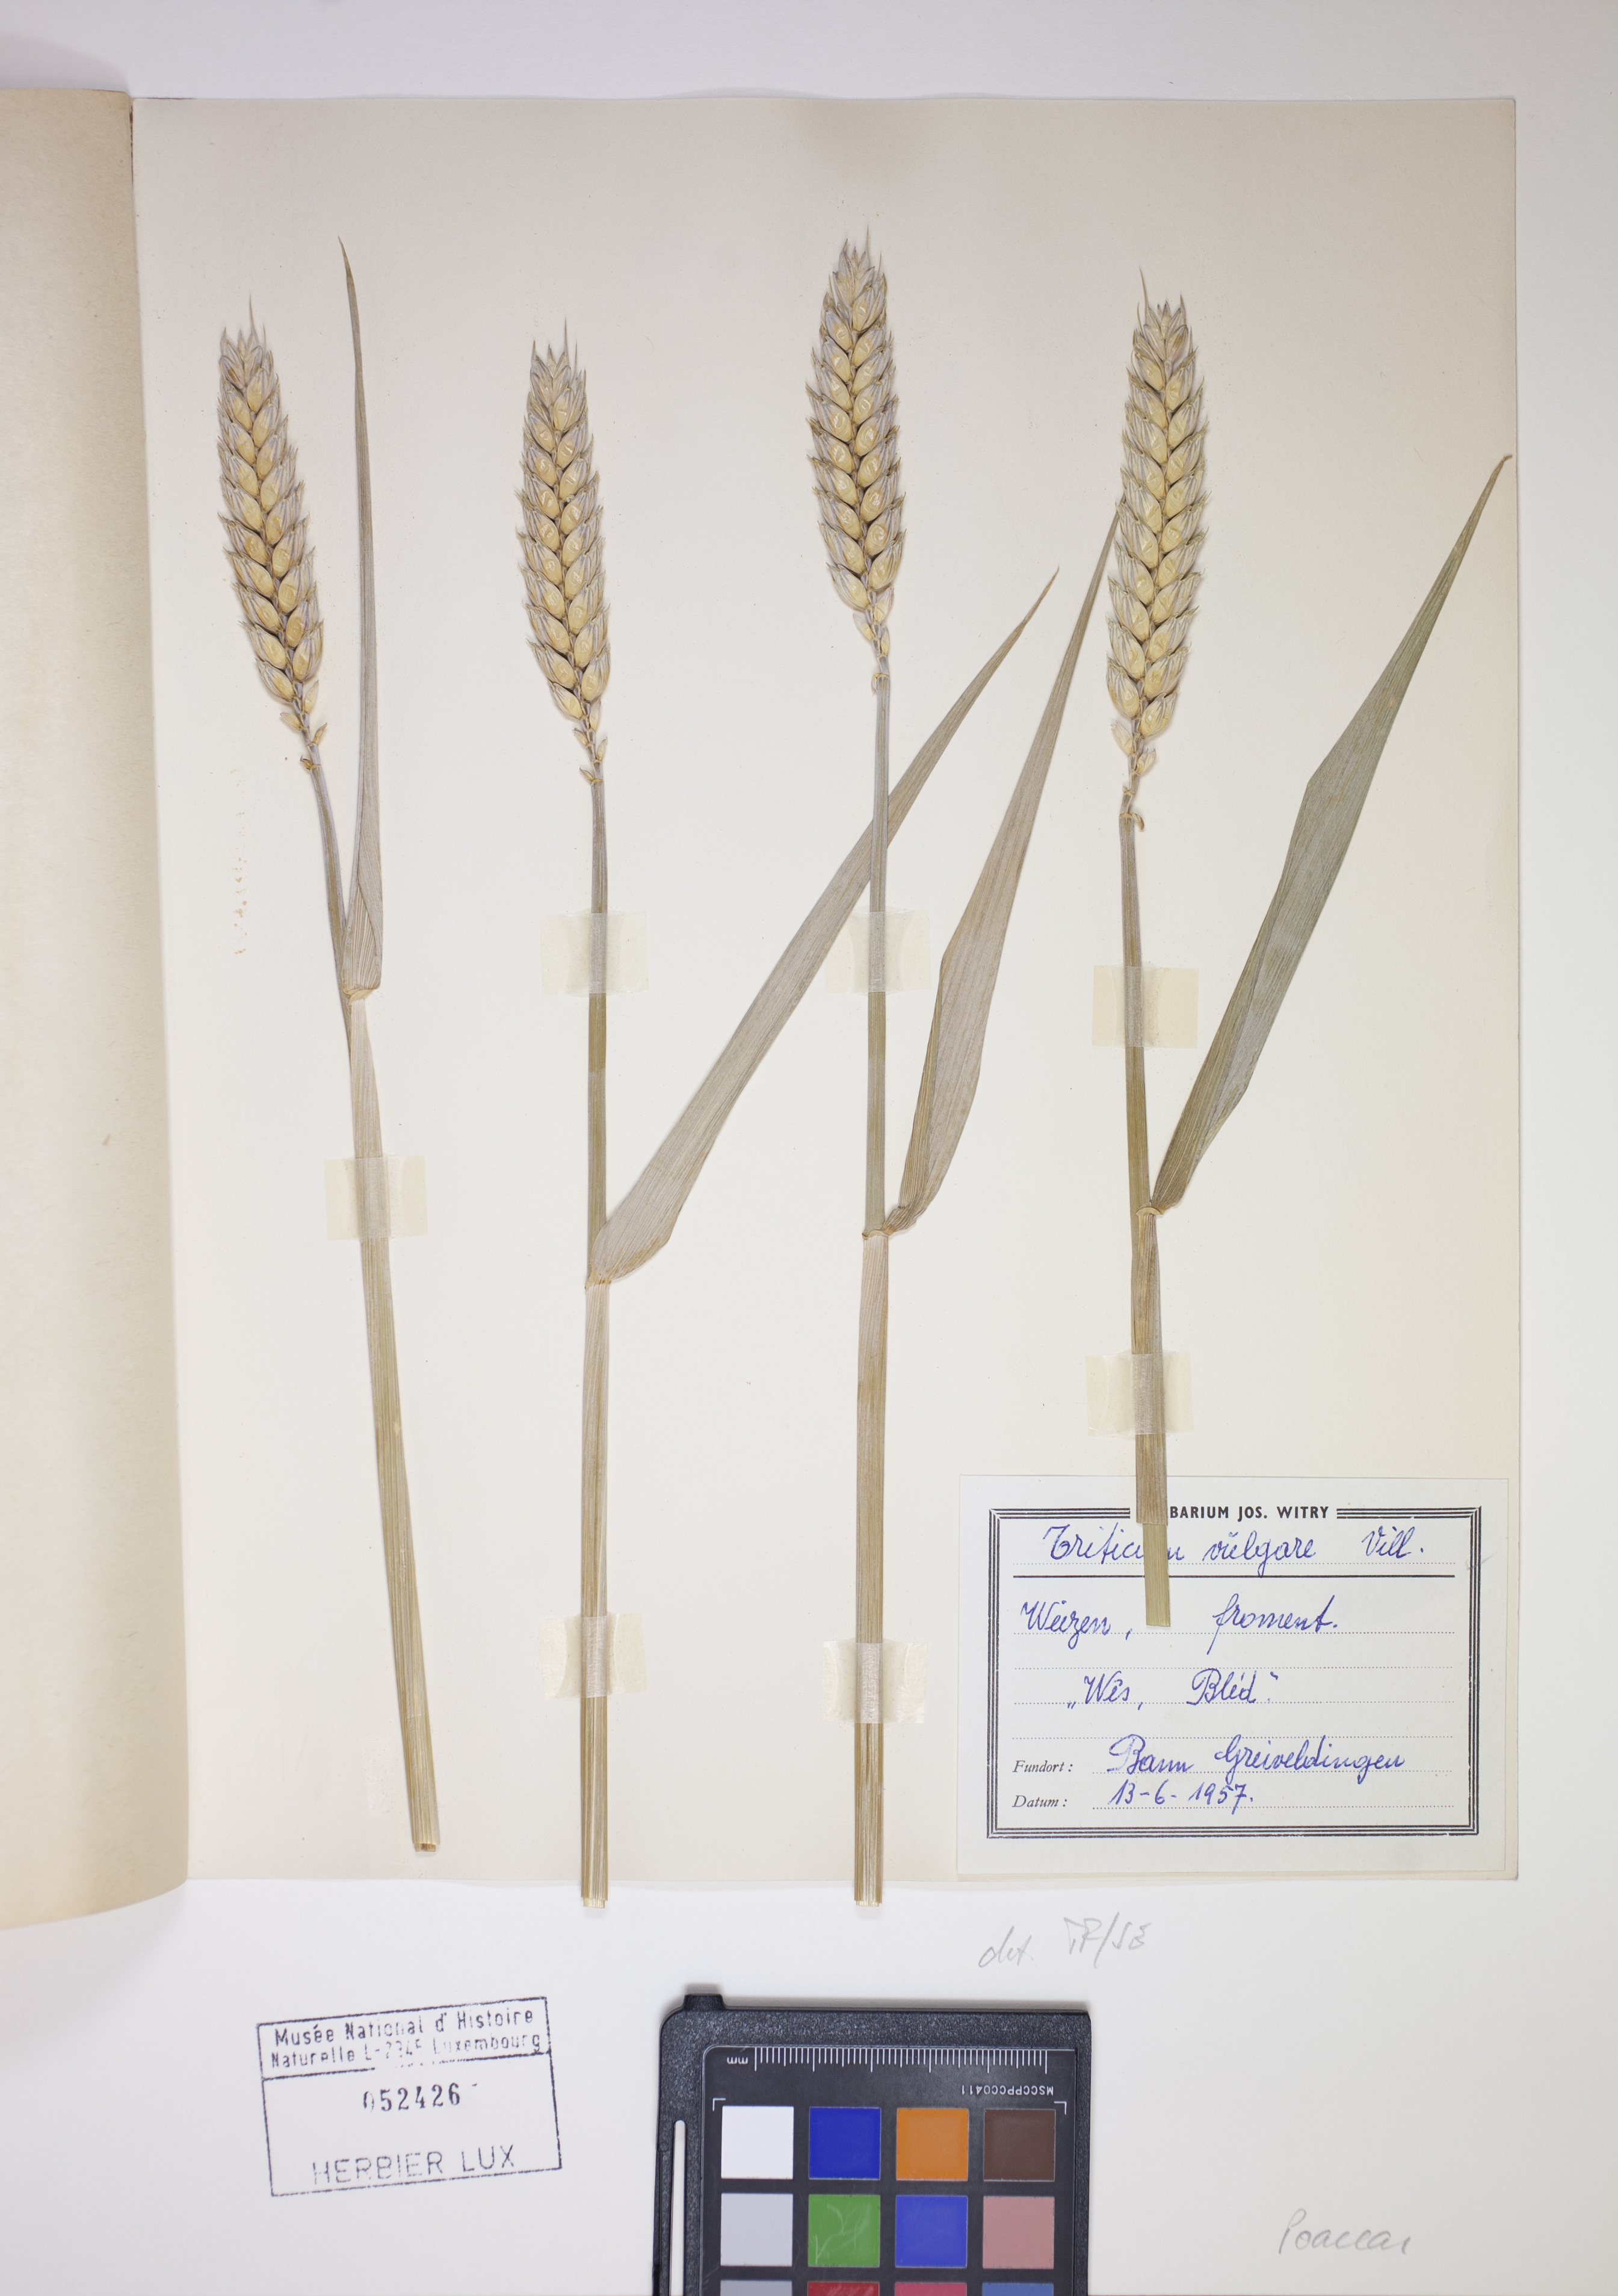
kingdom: Plantae
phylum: Tracheophyta
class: Liliopsida
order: Poales
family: Poaceae
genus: Triticum
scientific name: Triticum vulgare
